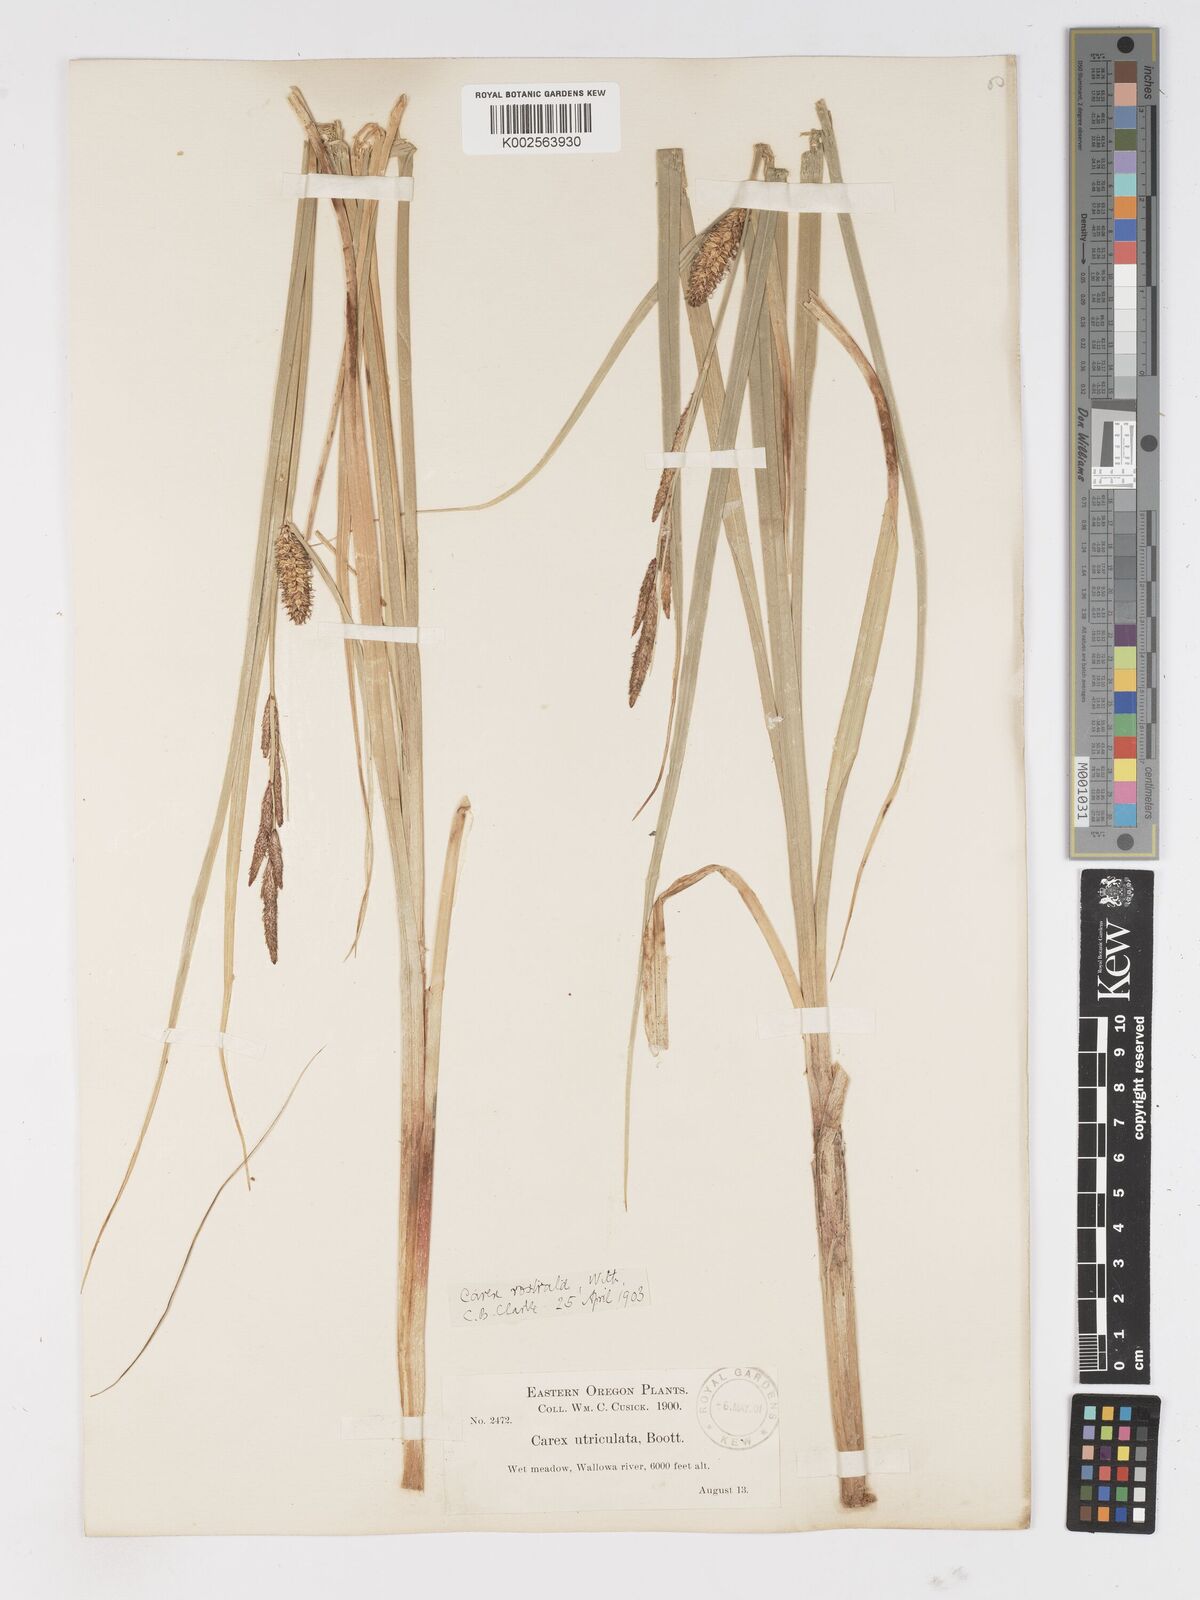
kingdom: Plantae
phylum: Tracheophyta
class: Liliopsida
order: Poales
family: Cyperaceae
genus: Carex
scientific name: Carex rostrata
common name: Bottle sedge
